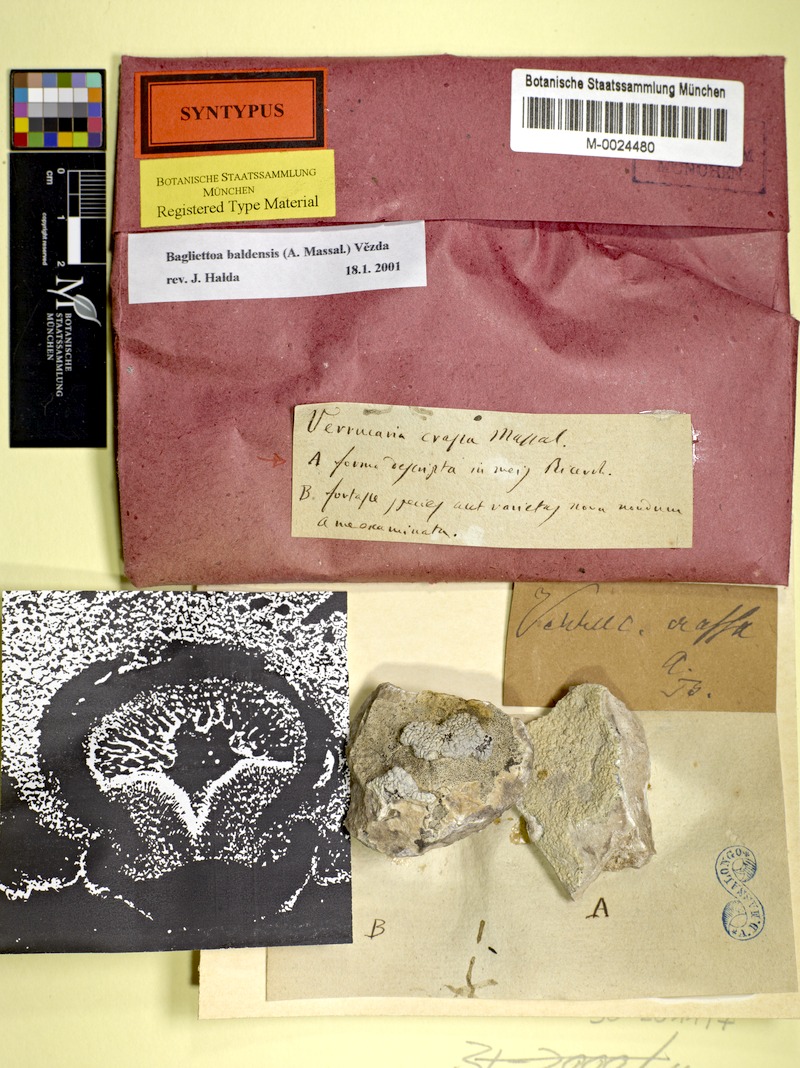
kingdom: Fungi
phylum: Ascomycota
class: Eurotiomycetes
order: Verrucariales
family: Verrucariaceae
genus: Bagliettoa
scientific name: Bagliettoa baldensis
